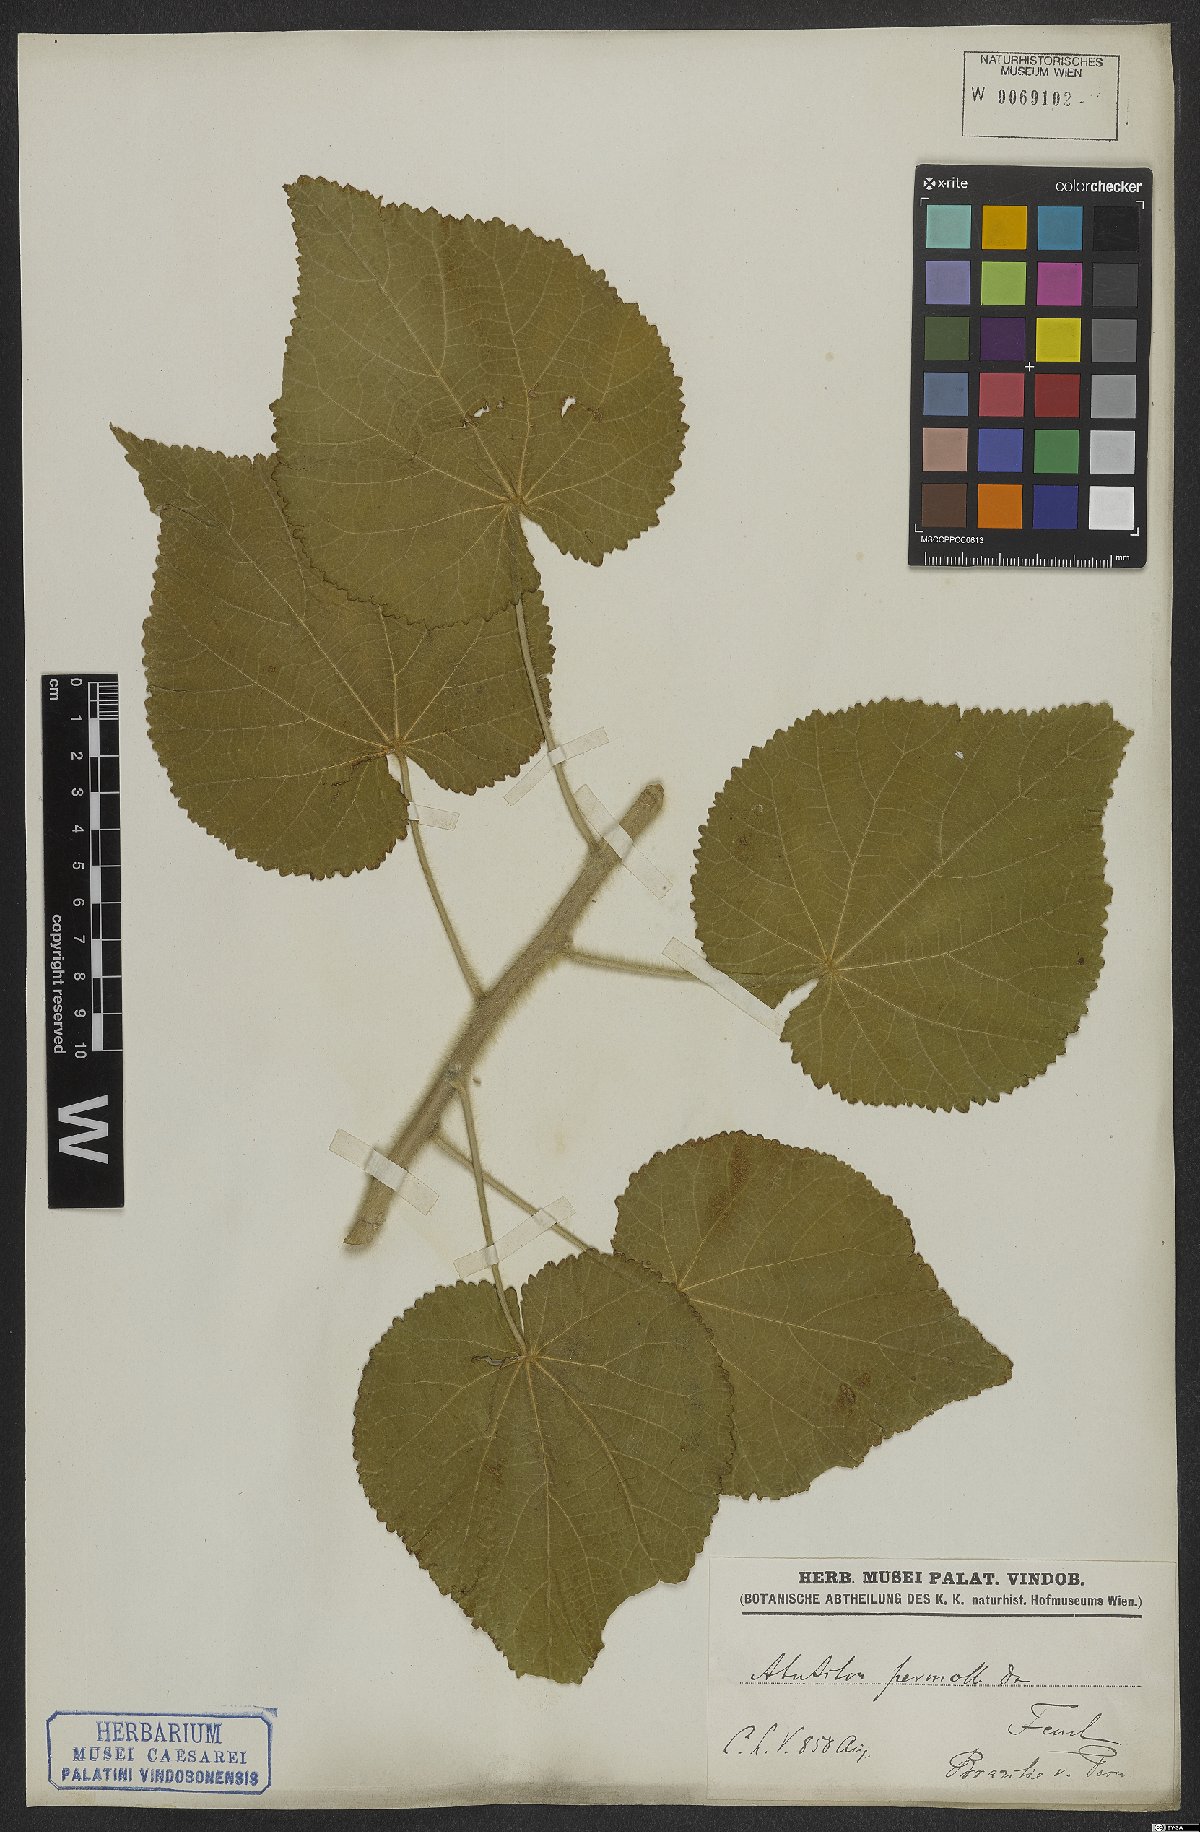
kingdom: Plantae
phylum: Tracheophyta
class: Magnoliopsida
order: Malvales
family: Malvaceae
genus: Callianthe
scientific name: Callianthe petiolaris
